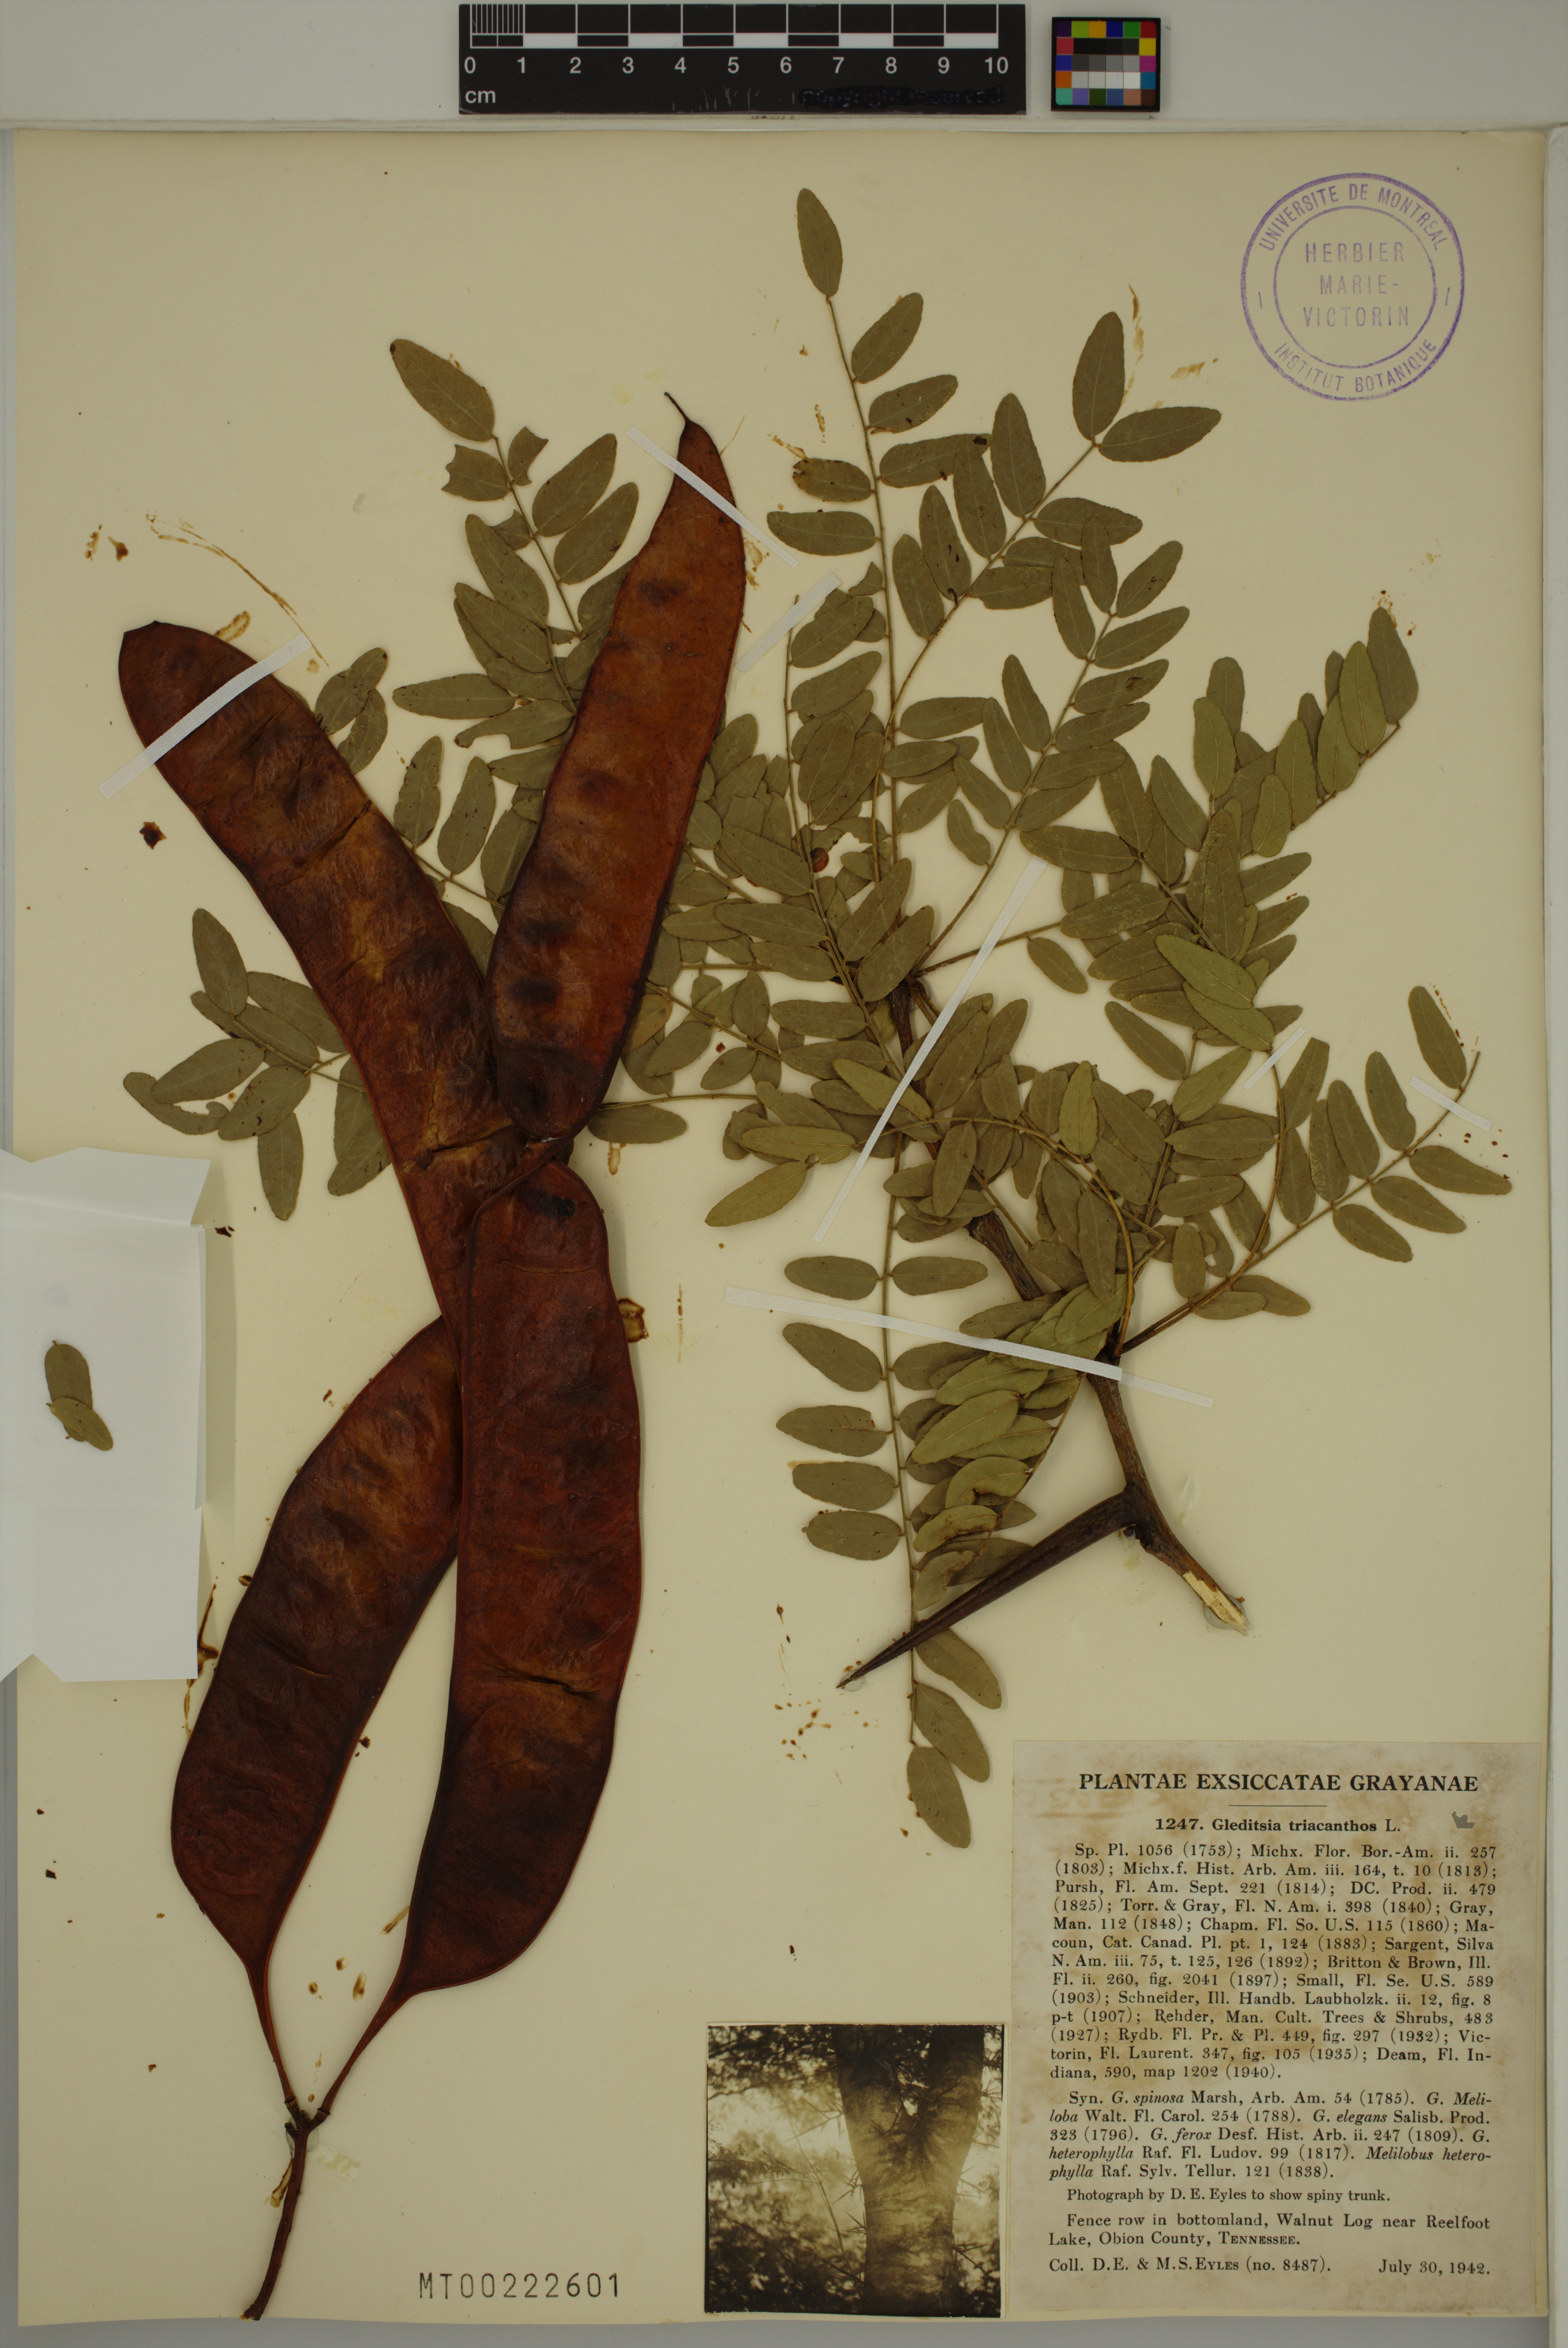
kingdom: Plantae
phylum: Tracheophyta
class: Magnoliopsida
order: Fabales
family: Fabaceae
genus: Gleditsia
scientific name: Gleditsia triacanthos
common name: Common honeylocust
